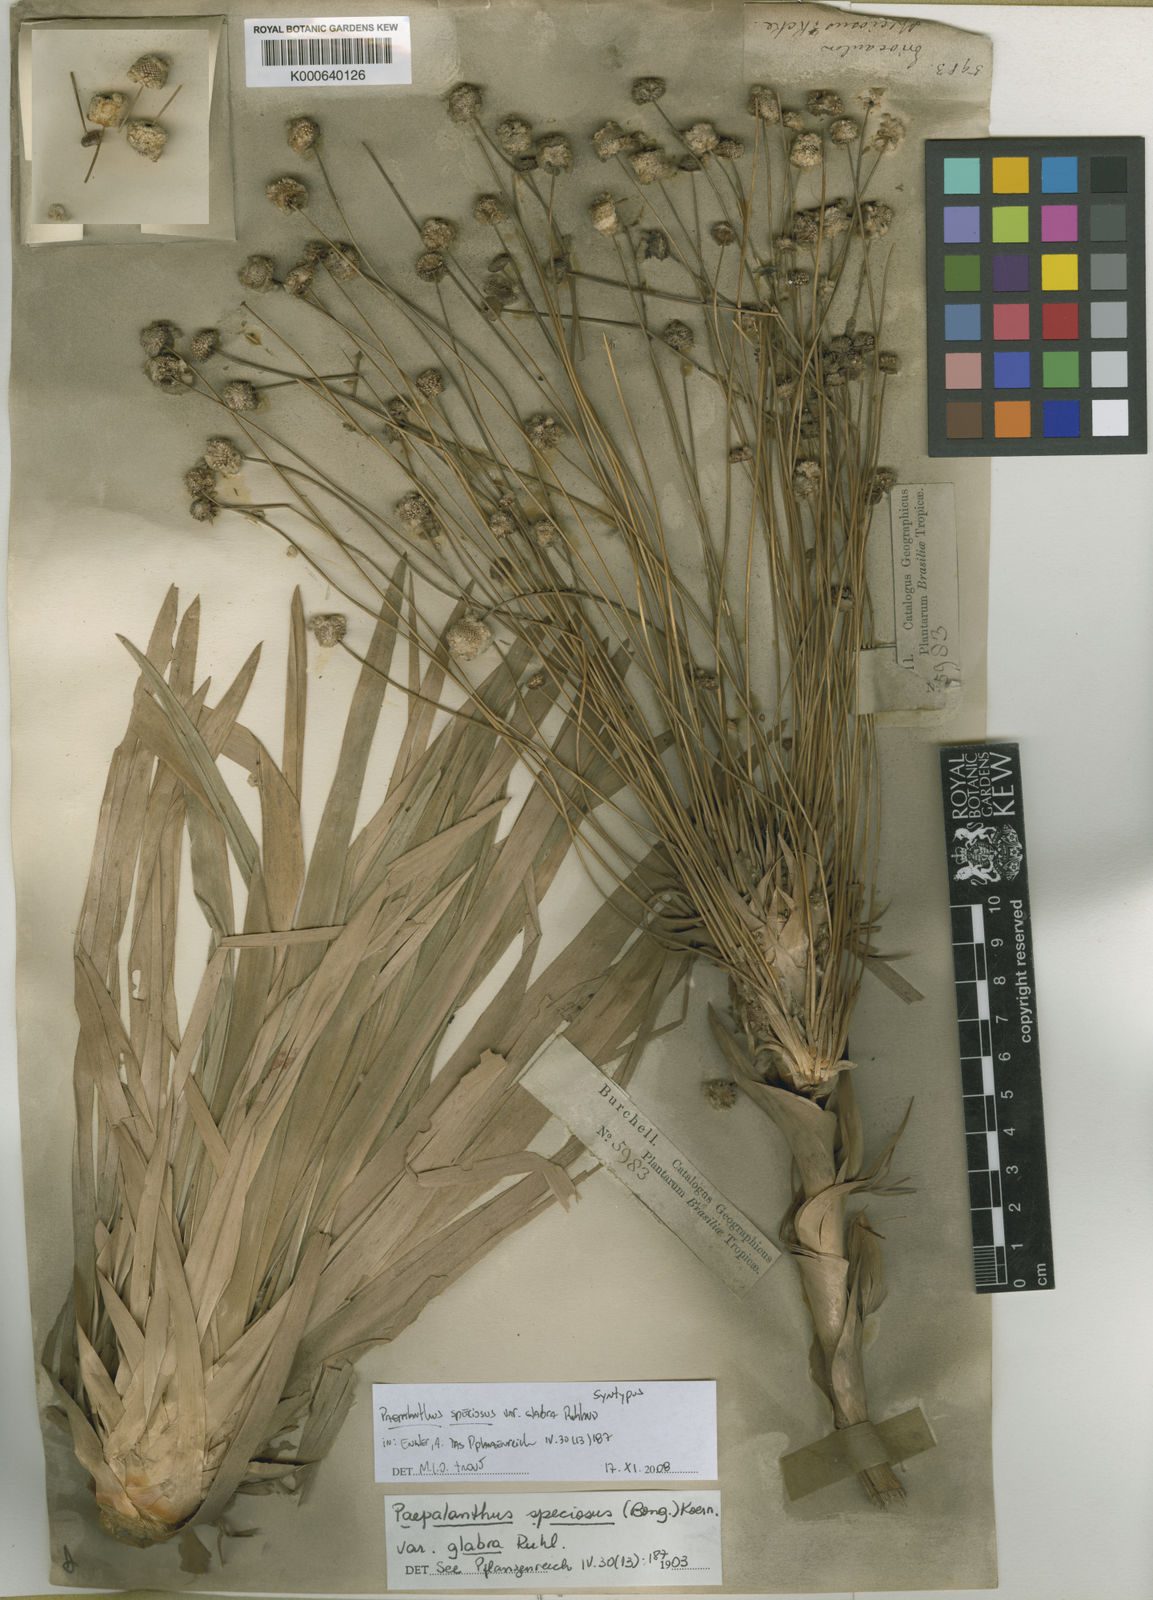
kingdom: Plantae
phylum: Tracheophyta
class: Liliopsida
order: Poales
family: Eriocaulaceae
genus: Paepalanthus
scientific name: Paepalanthus chiquitensis
